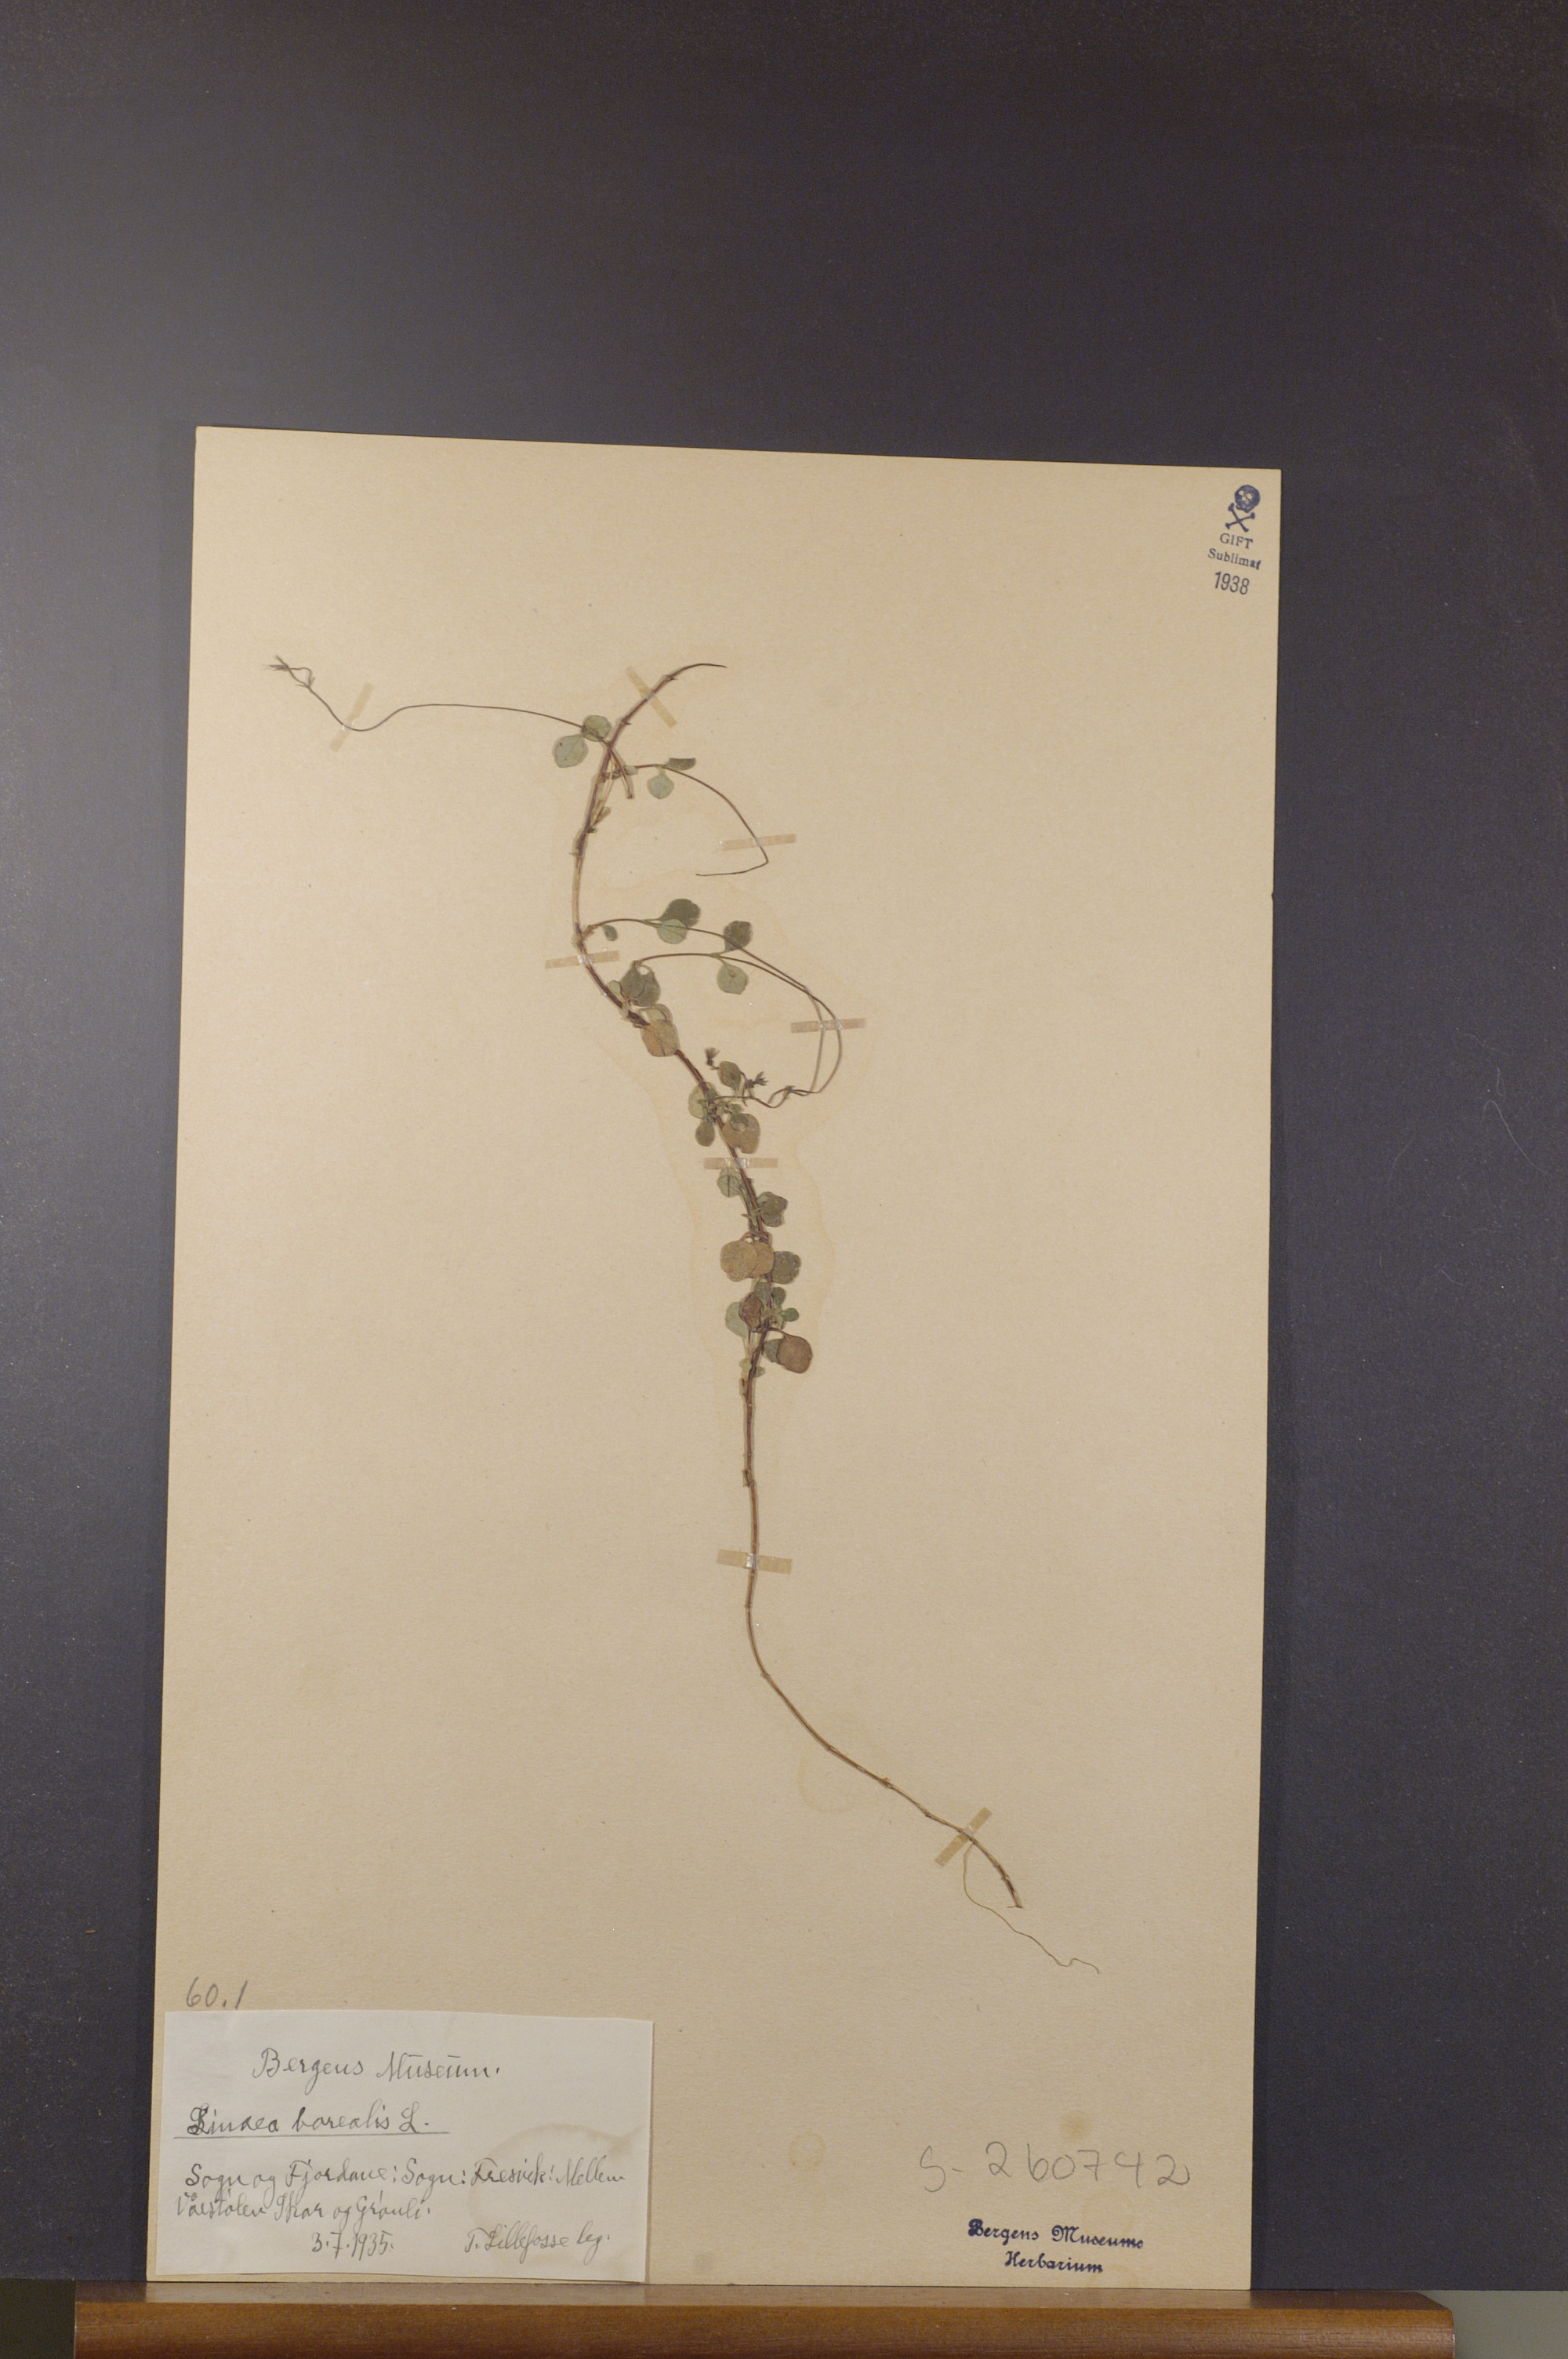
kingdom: Plantae
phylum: Tracheophyta
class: Magnoliopsida
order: Dipsacales
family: Caprifoliaceae
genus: Linnaea
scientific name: Linnaea borealis
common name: Twinflower
